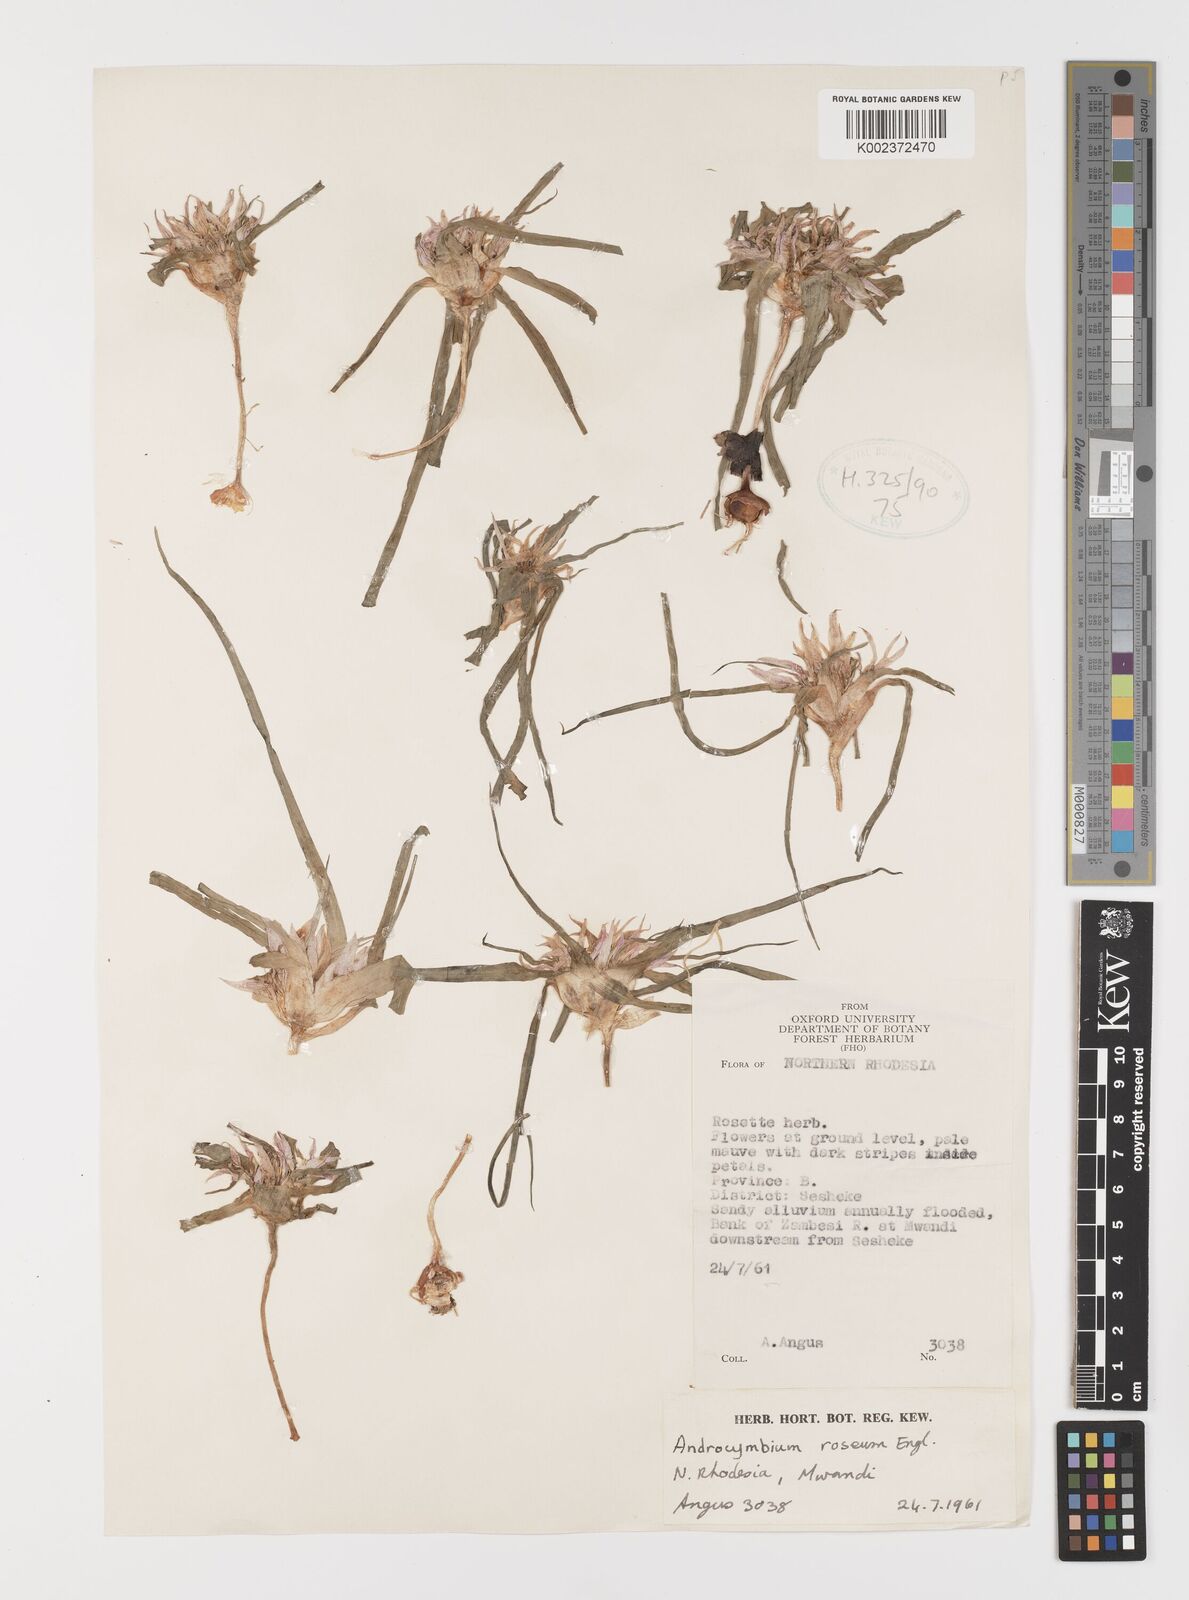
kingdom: Plantae
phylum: Tracheophyta
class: Liliopsida
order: Liliales
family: Colchicaceae
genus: Colchicum
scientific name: Colchicum roseum
